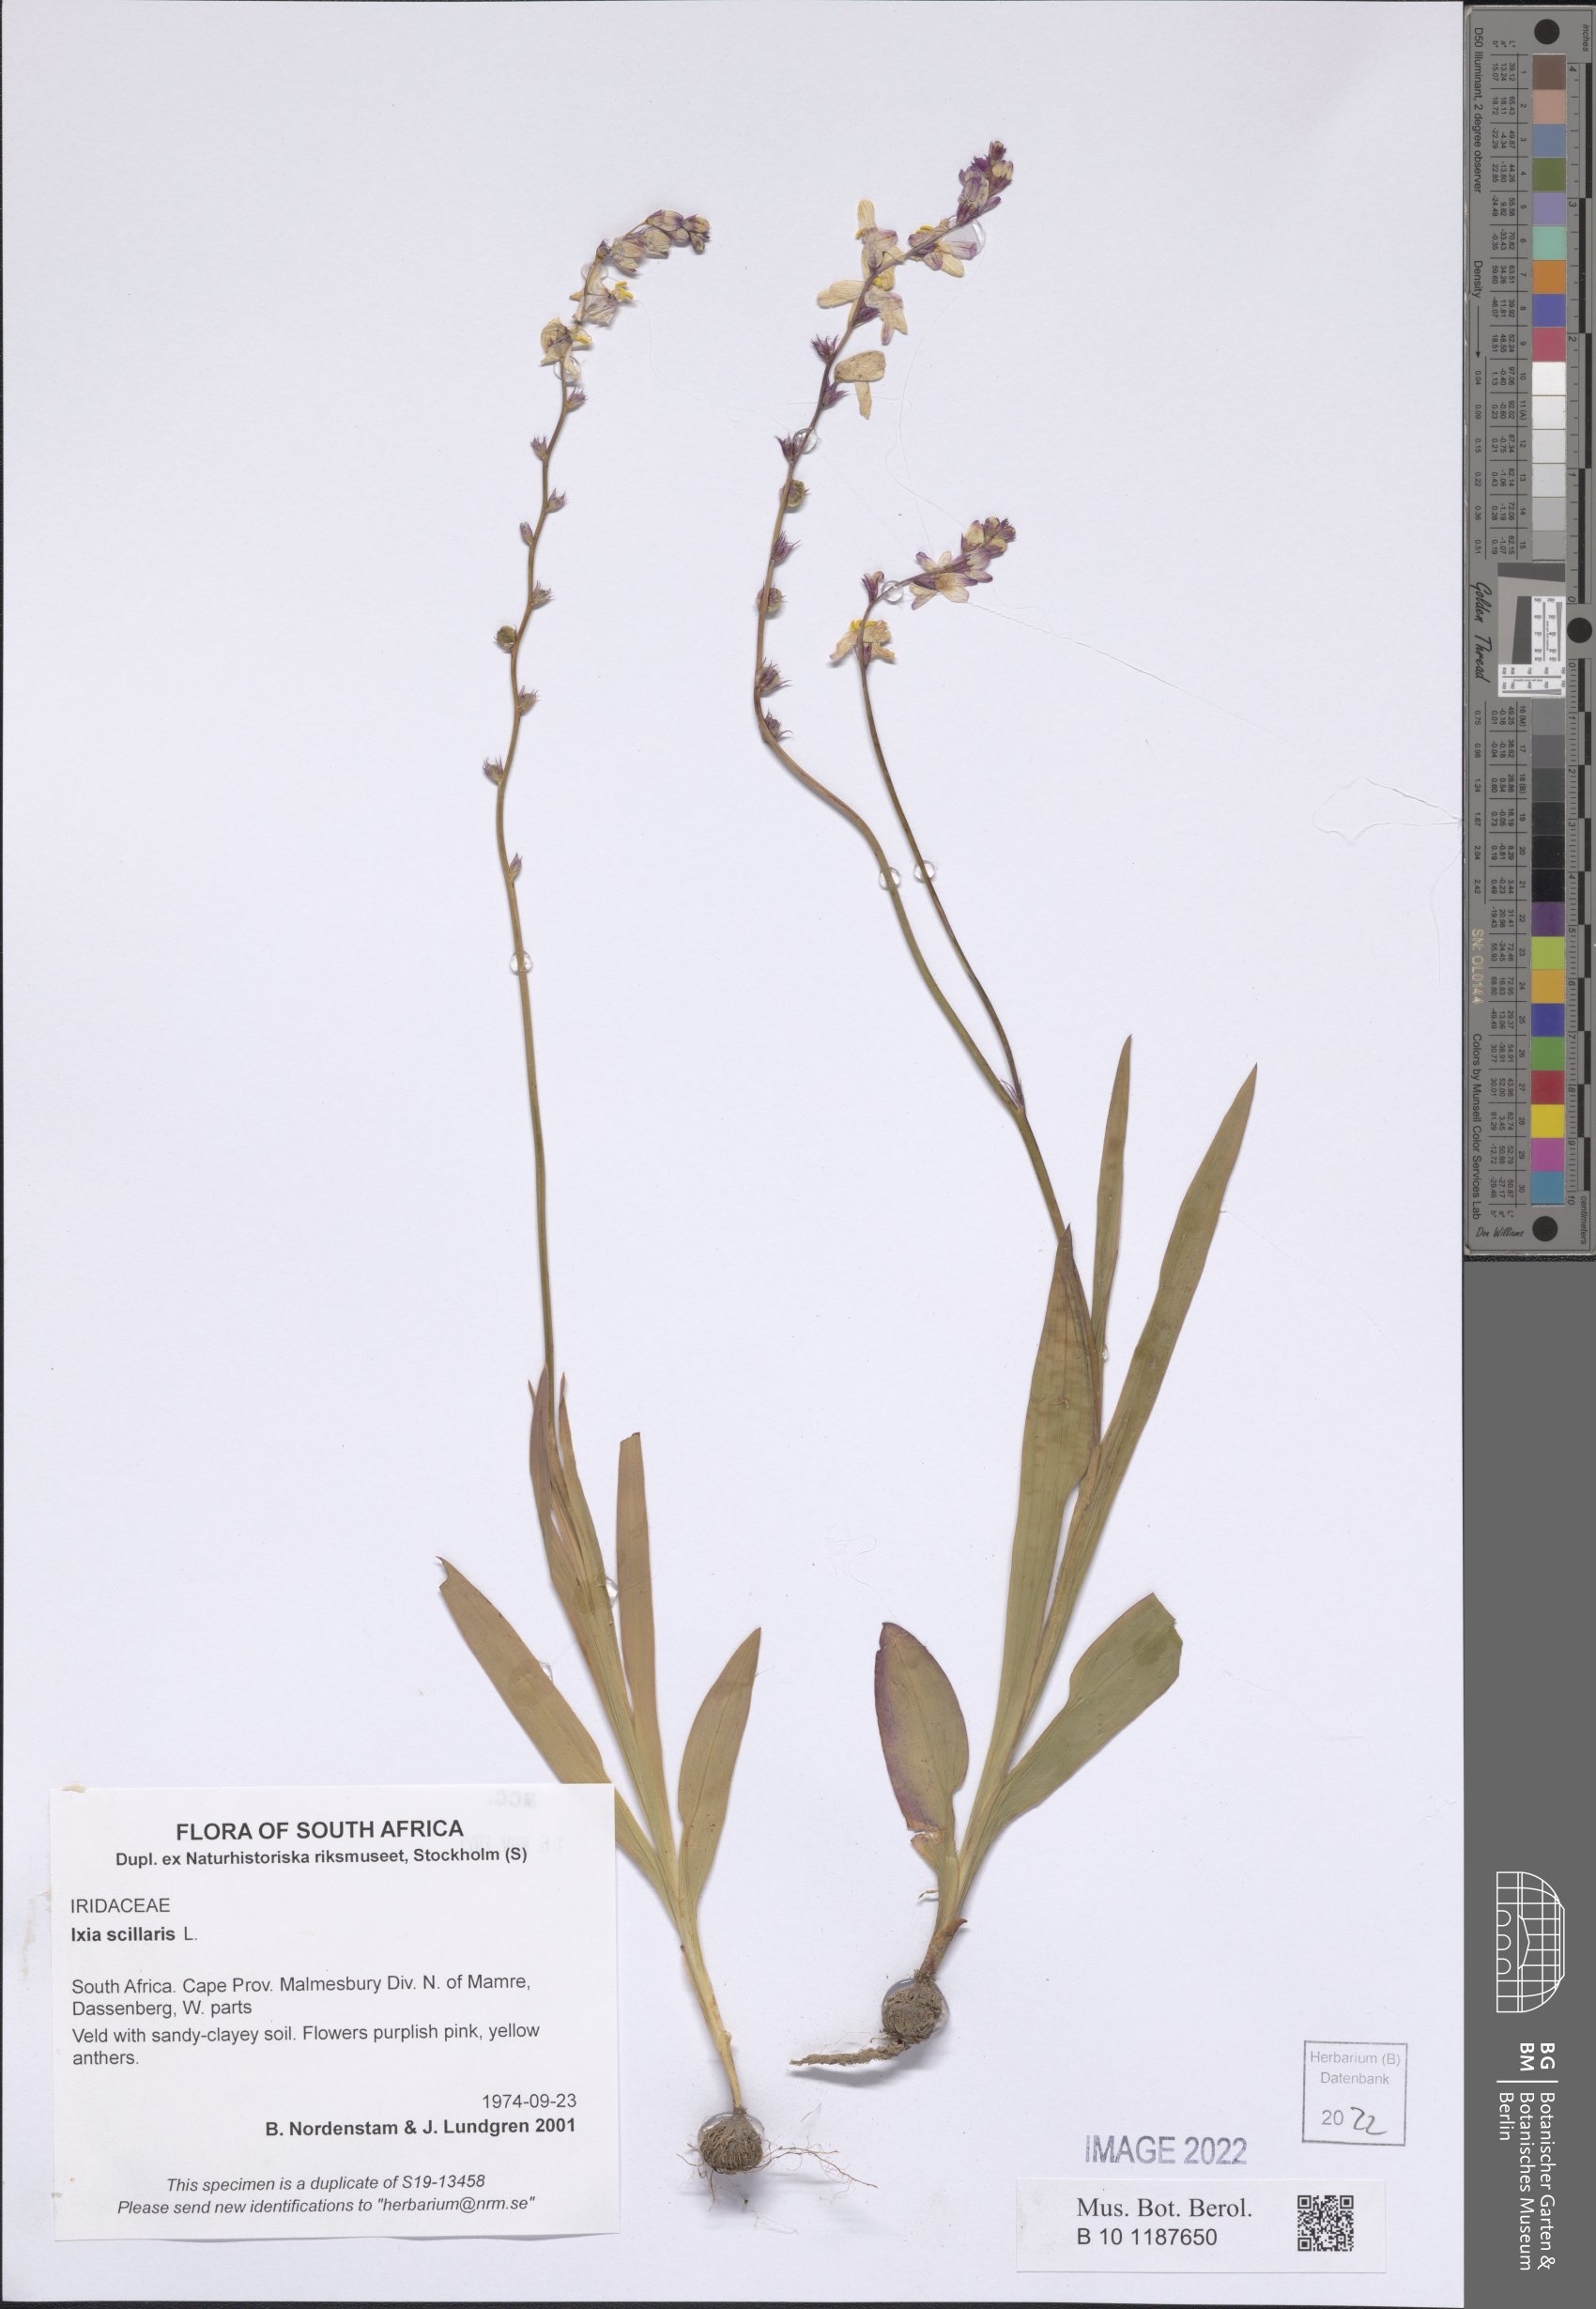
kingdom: Plantae
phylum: Tracheophyta
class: Liliopsida
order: Asparagales
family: Iridaceae
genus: Ixia
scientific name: Ixia scillaris
